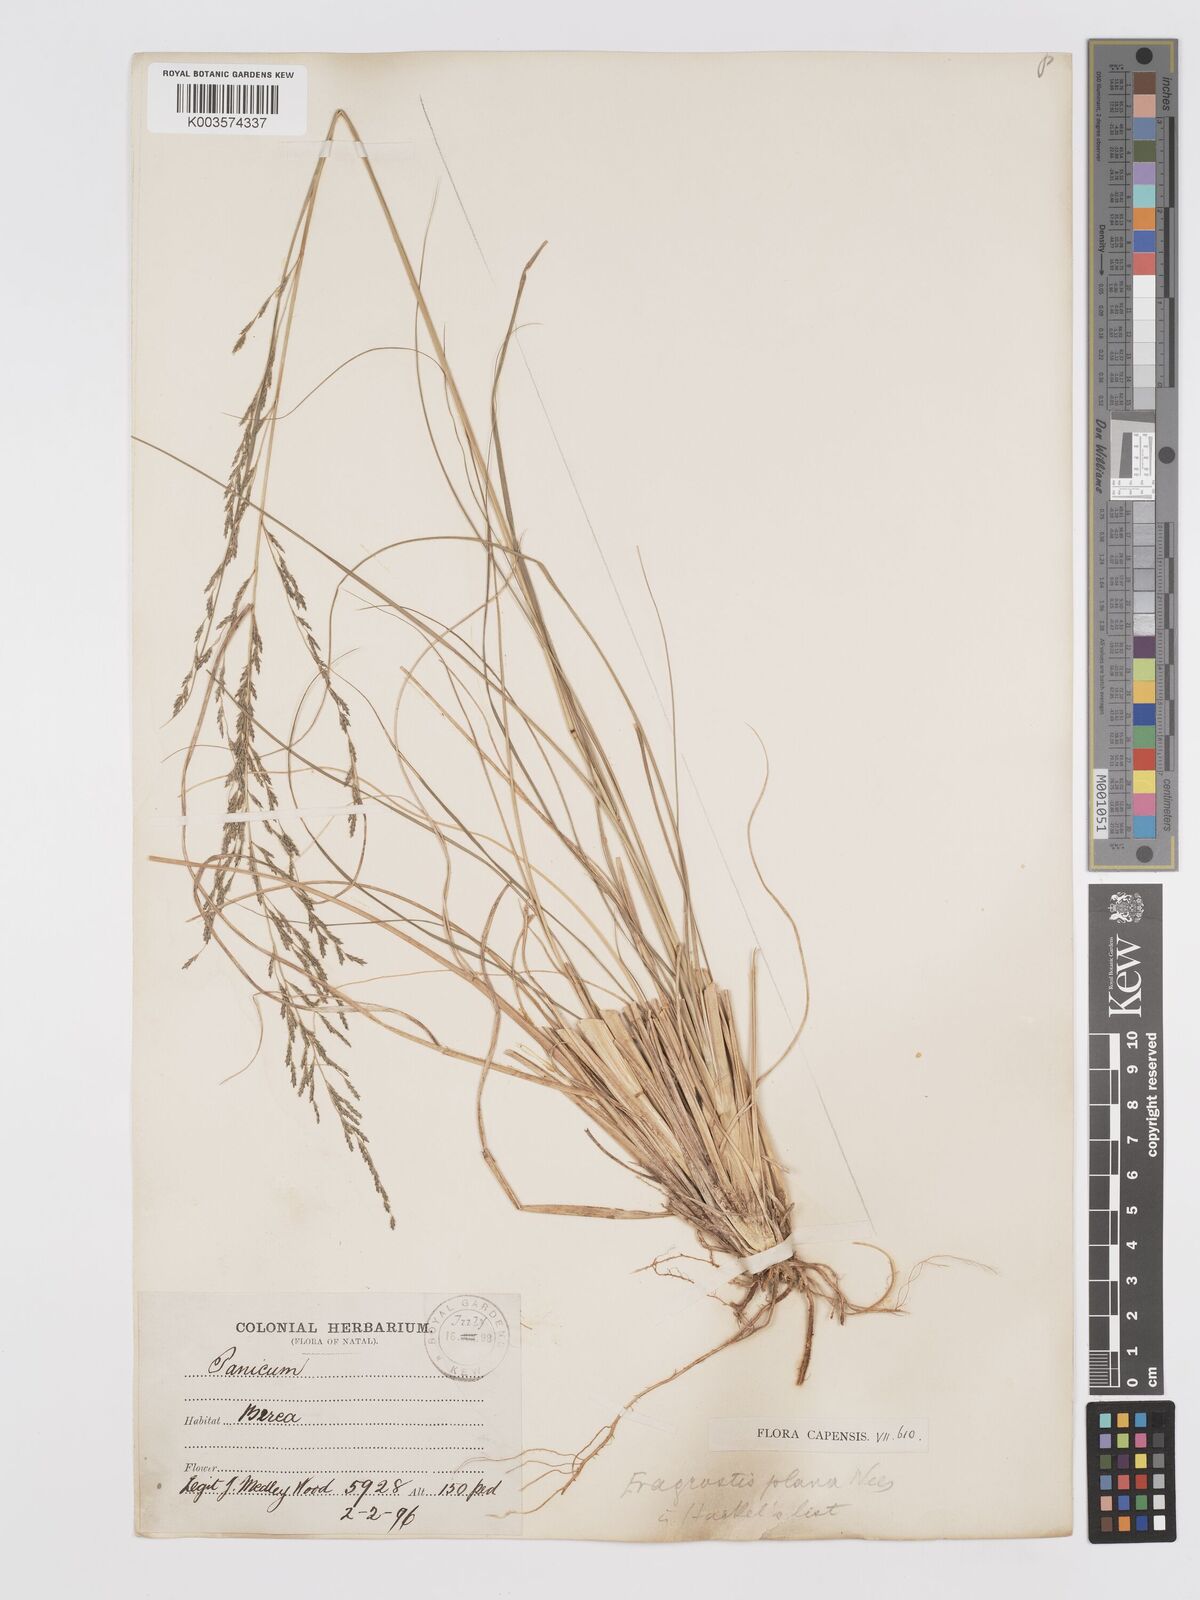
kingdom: Plantae
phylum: Tracheophyta
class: Liliopsida
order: Poales
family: Poaceae
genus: Eragrostis
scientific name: Eragrostis plana
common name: South african lovegrass
